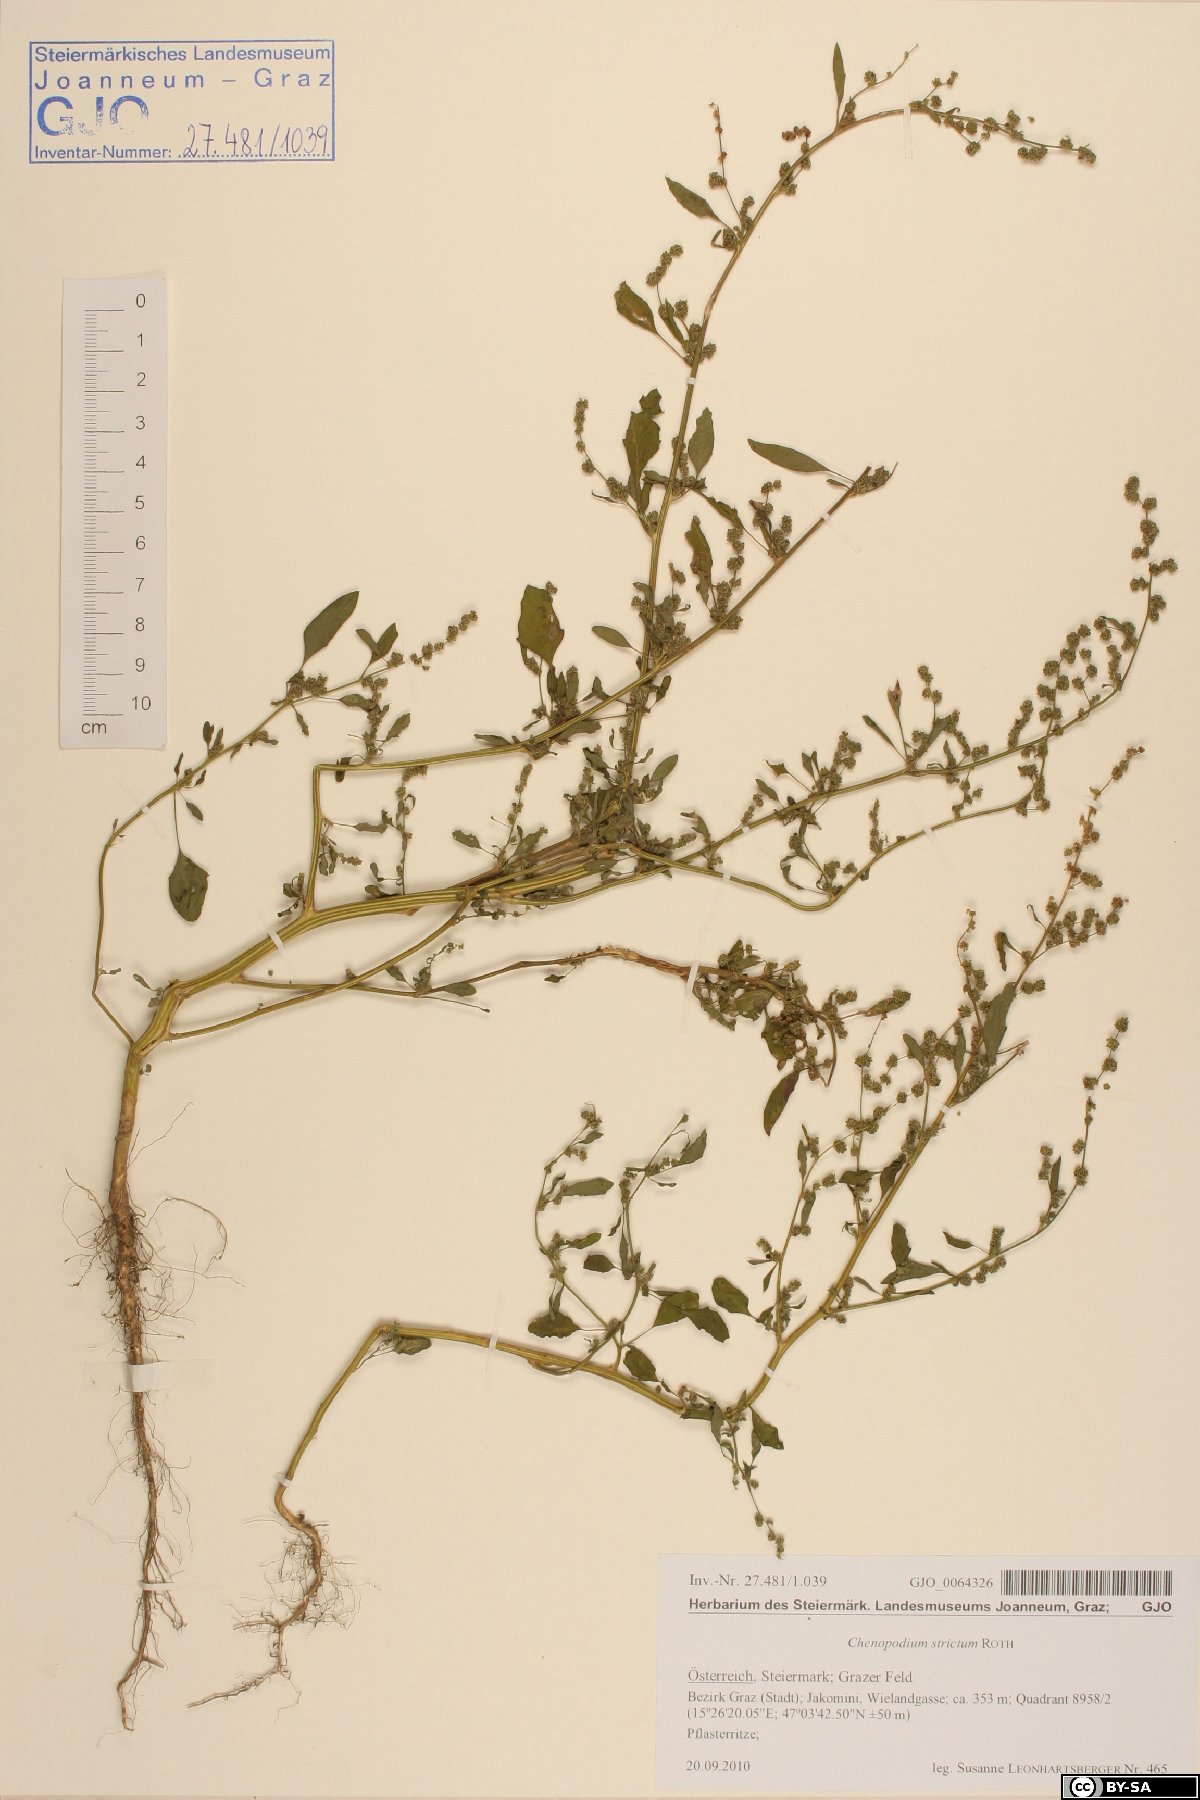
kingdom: Plantae
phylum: Tracheophyta
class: Magnoliopsida
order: Caryophyllales
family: Amaranthaceae
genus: Chenopodium
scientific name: Chenopodium album
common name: Fat-hen
